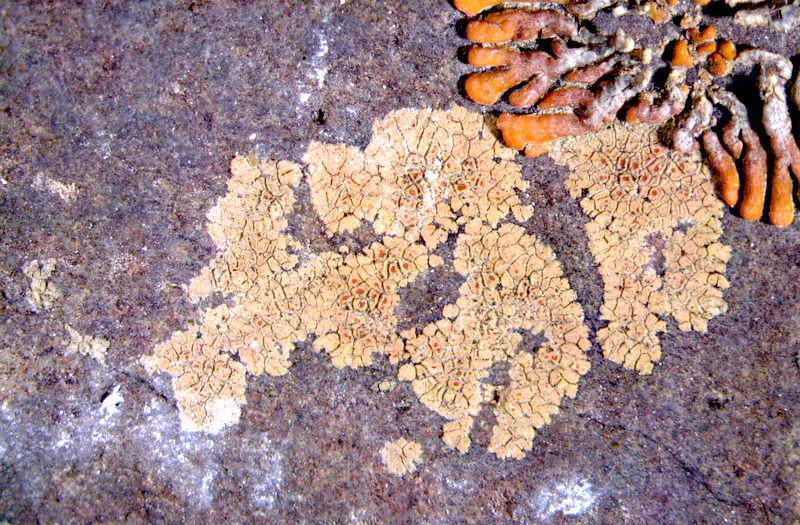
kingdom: Fungi
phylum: Ascomycota
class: Lecanoromycetes
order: Teloschistales
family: Teloschistaceae
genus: Caloplaca
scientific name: Caloplaca rubelliana
